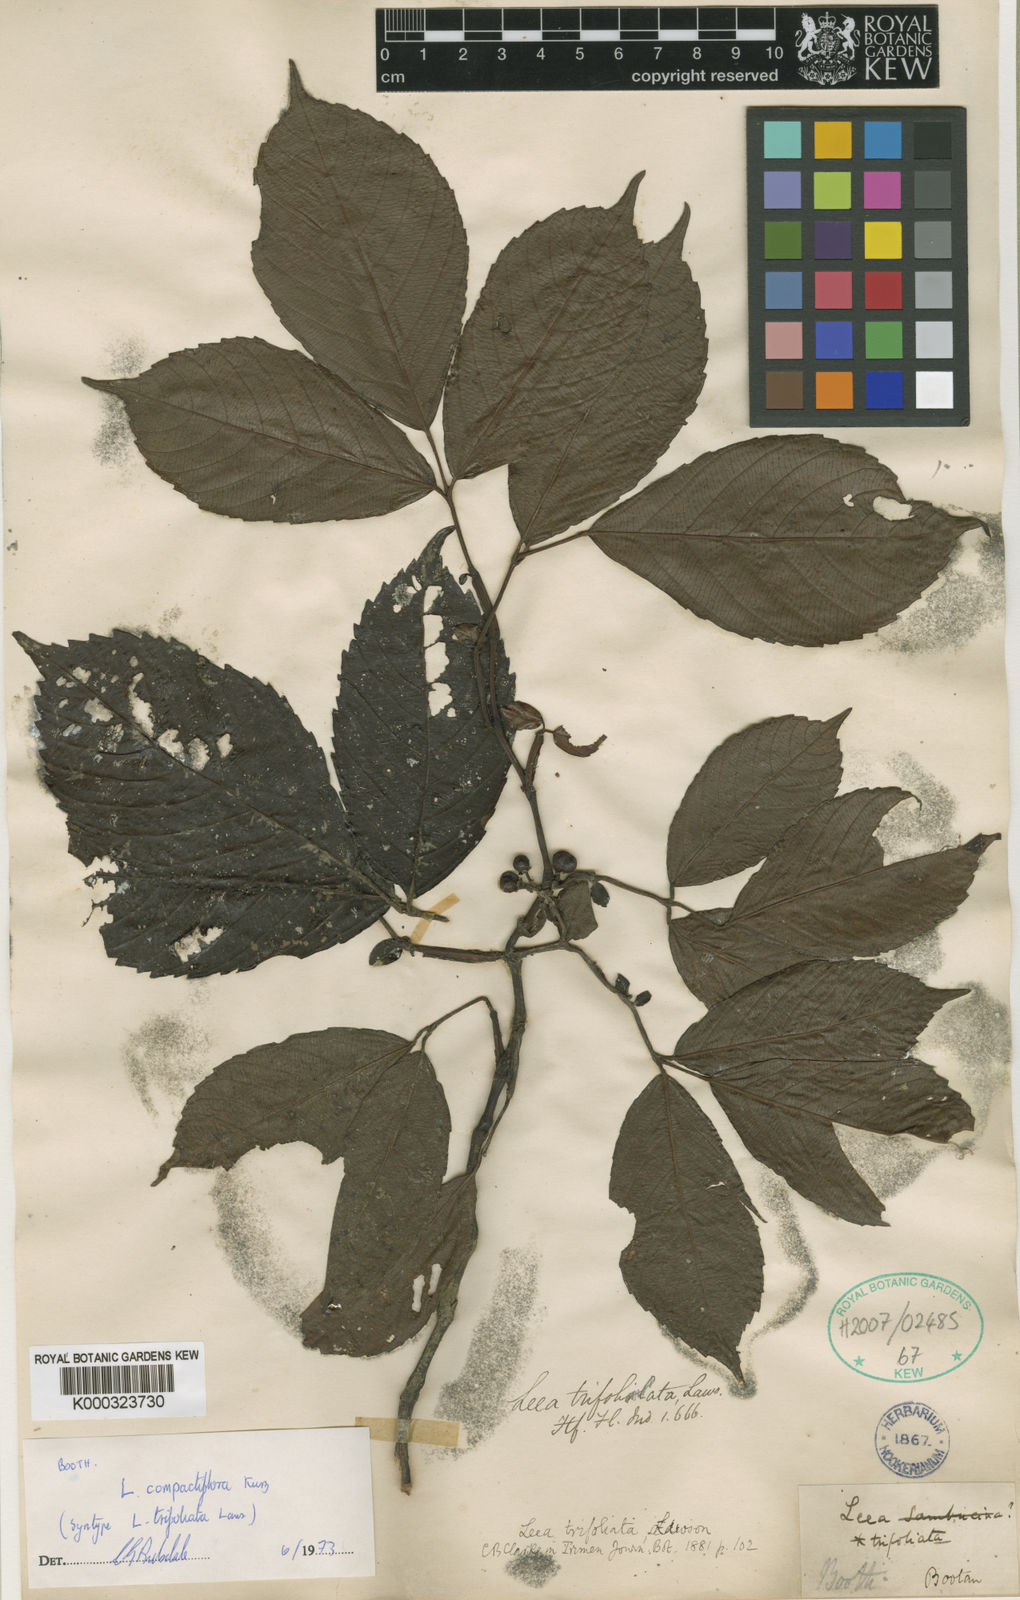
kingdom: Plantae
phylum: Tracheophyta
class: Magnoliopsida
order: Vitales
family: Vitaceae
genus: Leea
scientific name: Leea compactiflora
